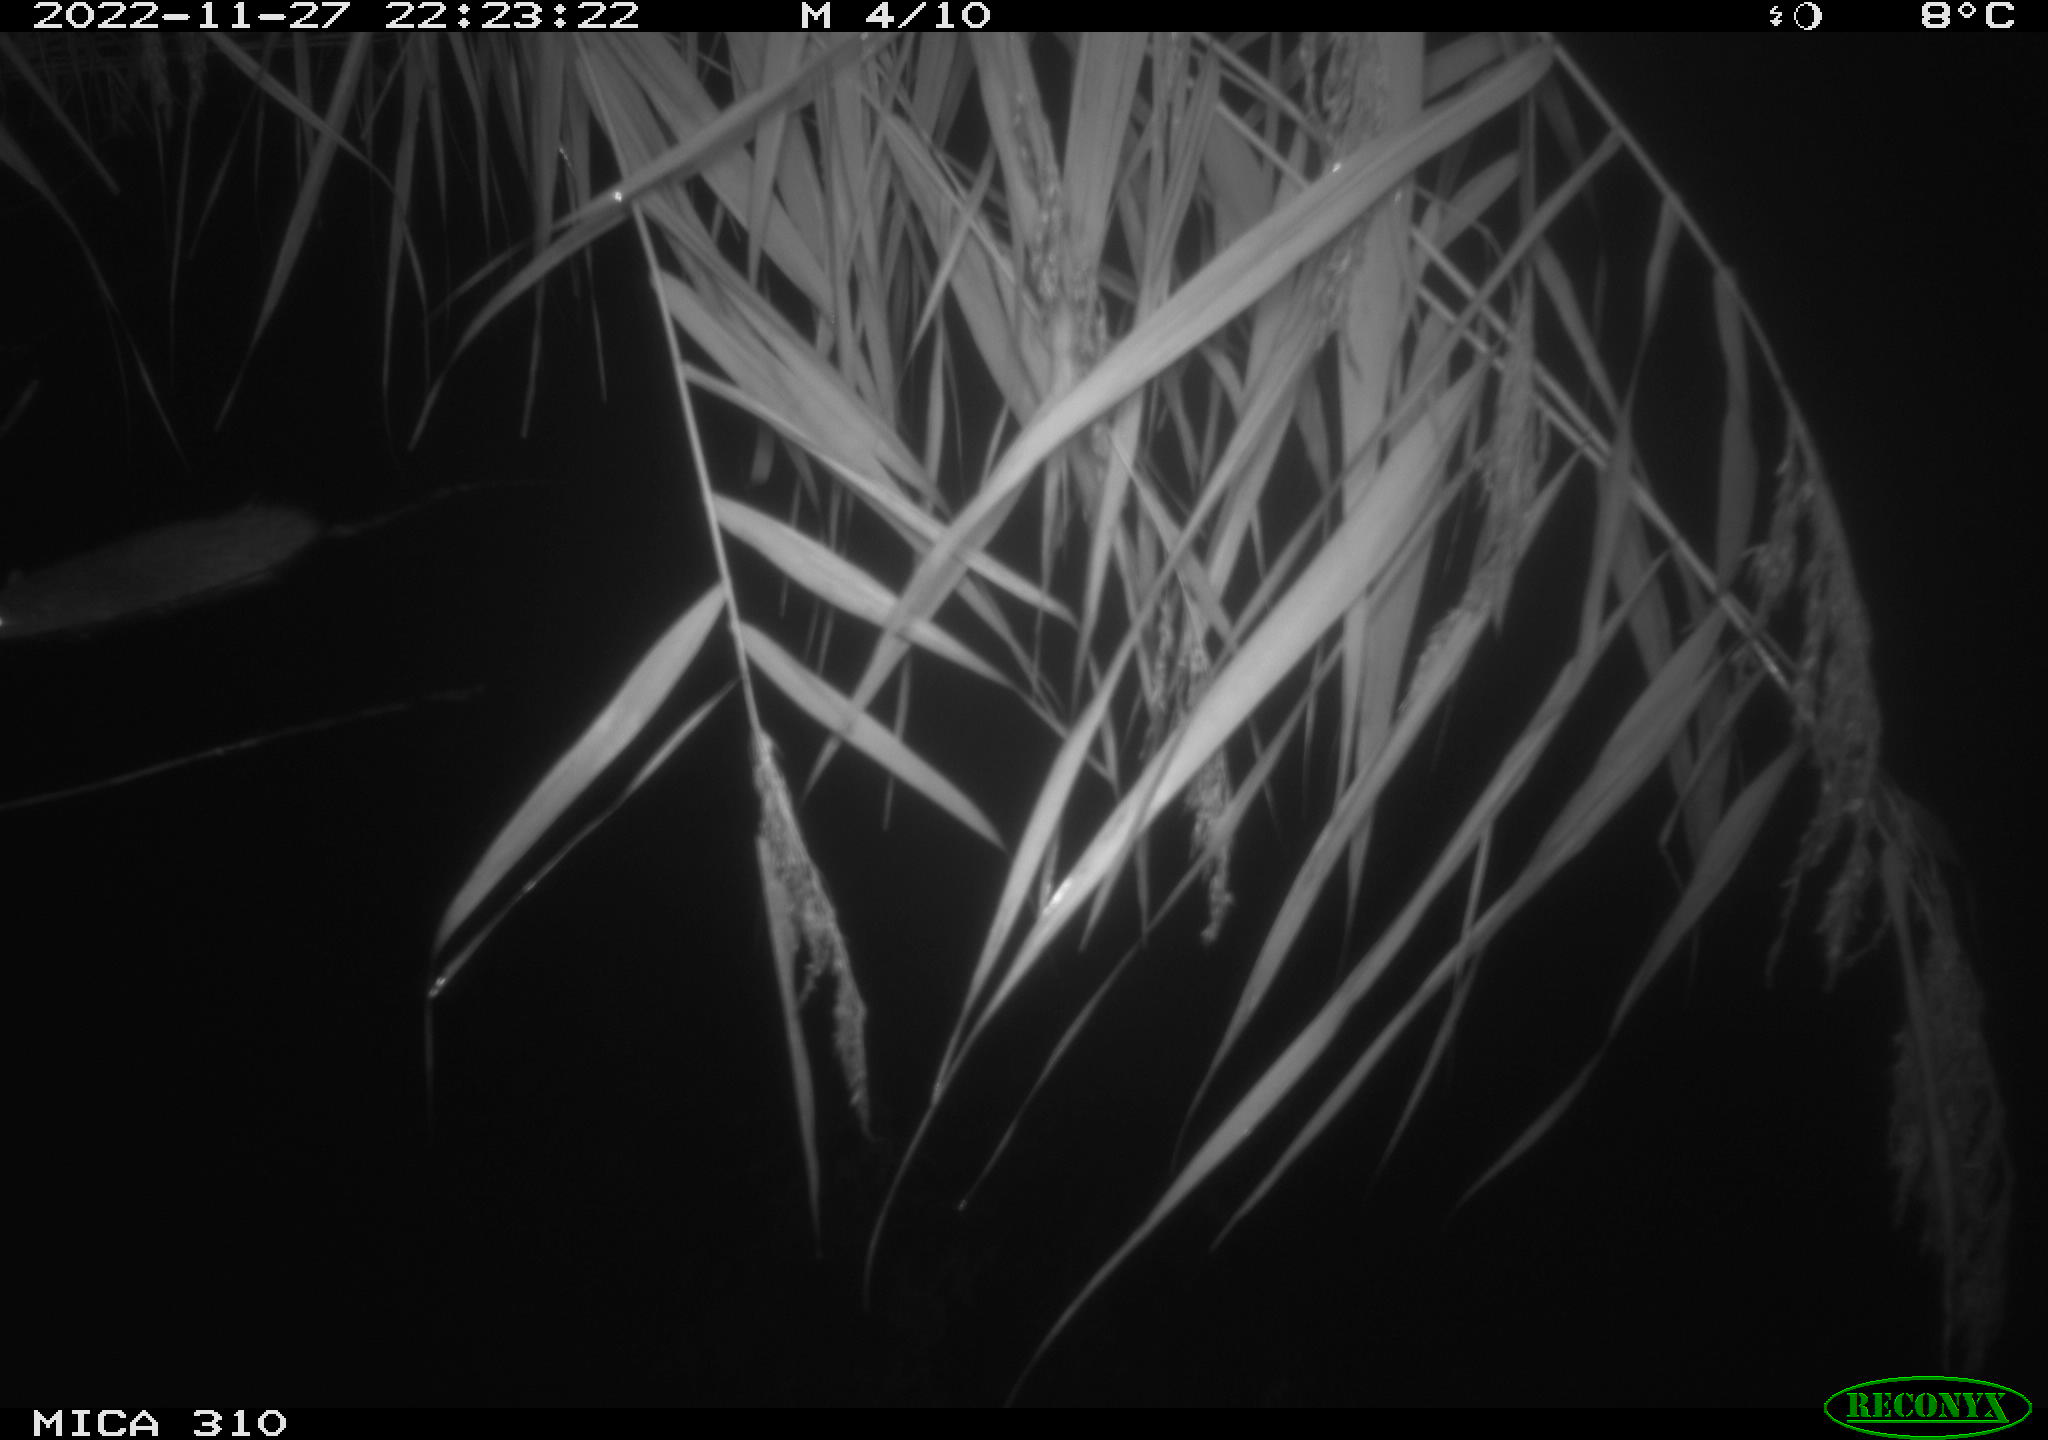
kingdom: Animalia
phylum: Chordata
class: Mammalia
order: Rodentia
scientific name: Rodentia
